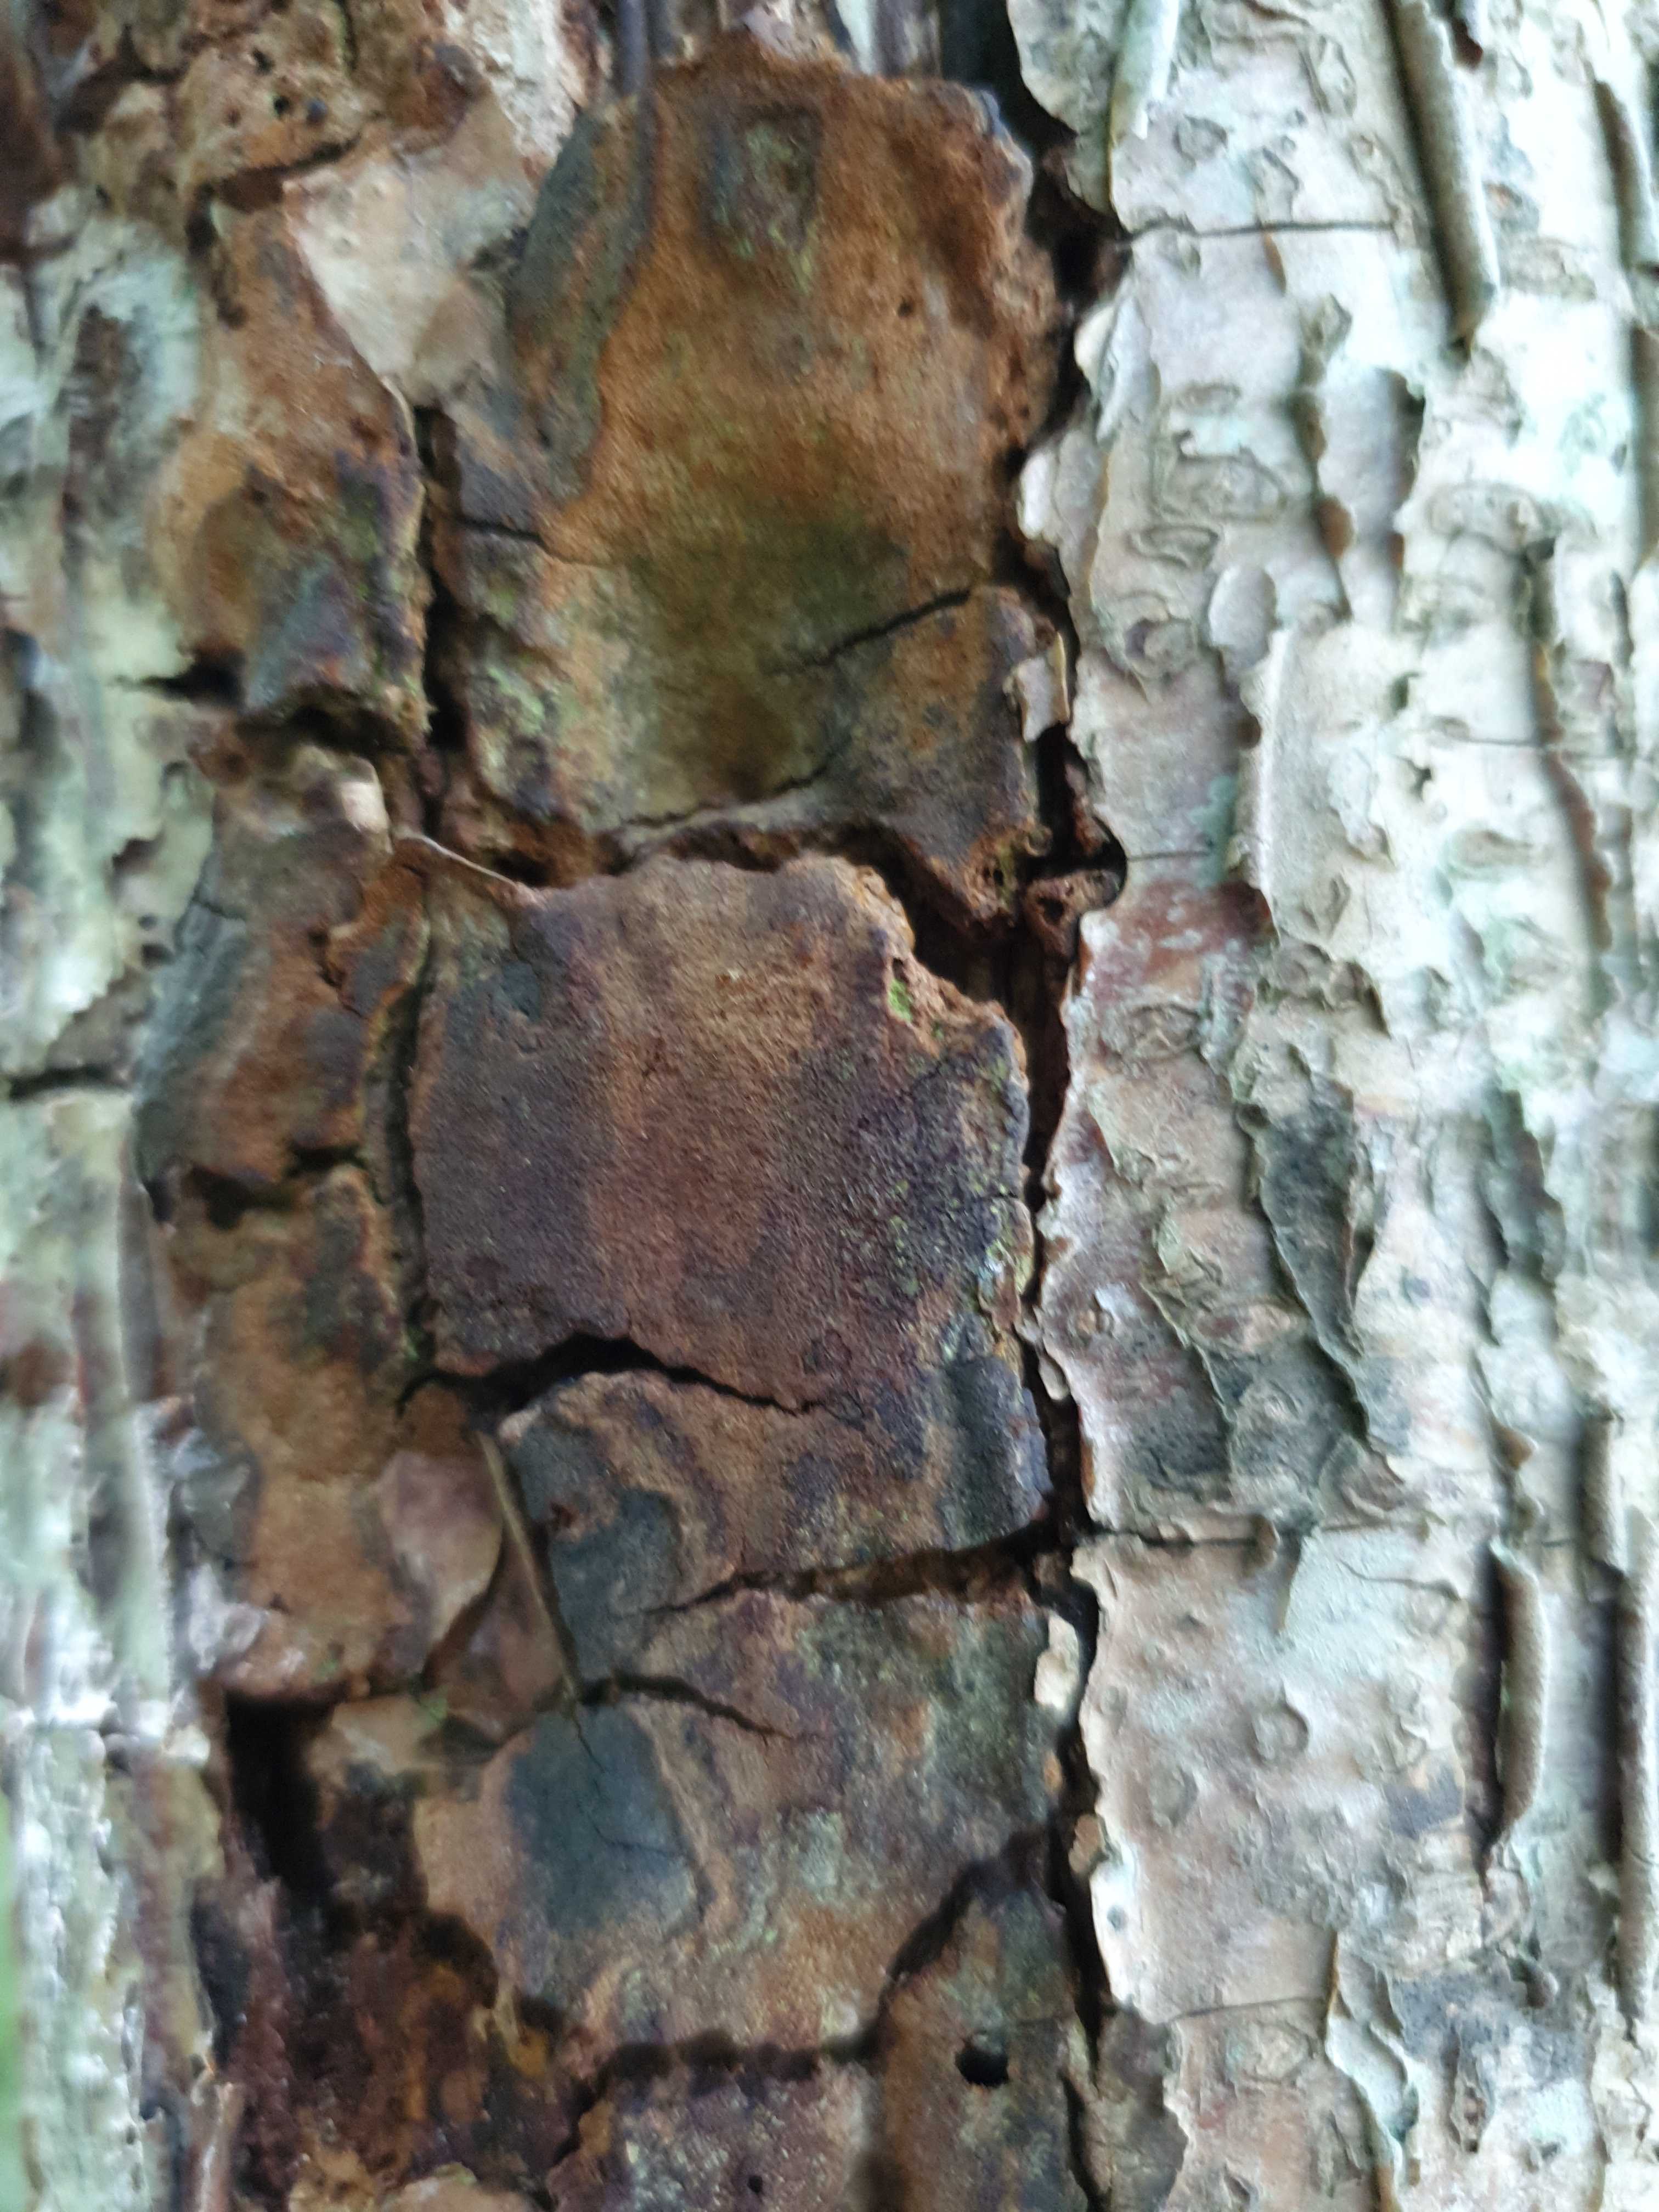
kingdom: Fungi
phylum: Basidiomycota
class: Agaricomycetes
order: Hymenochaetales
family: Hymenochaetaceae
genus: Fuscoporia
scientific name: Fuscoporia
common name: Ildporesvamp
